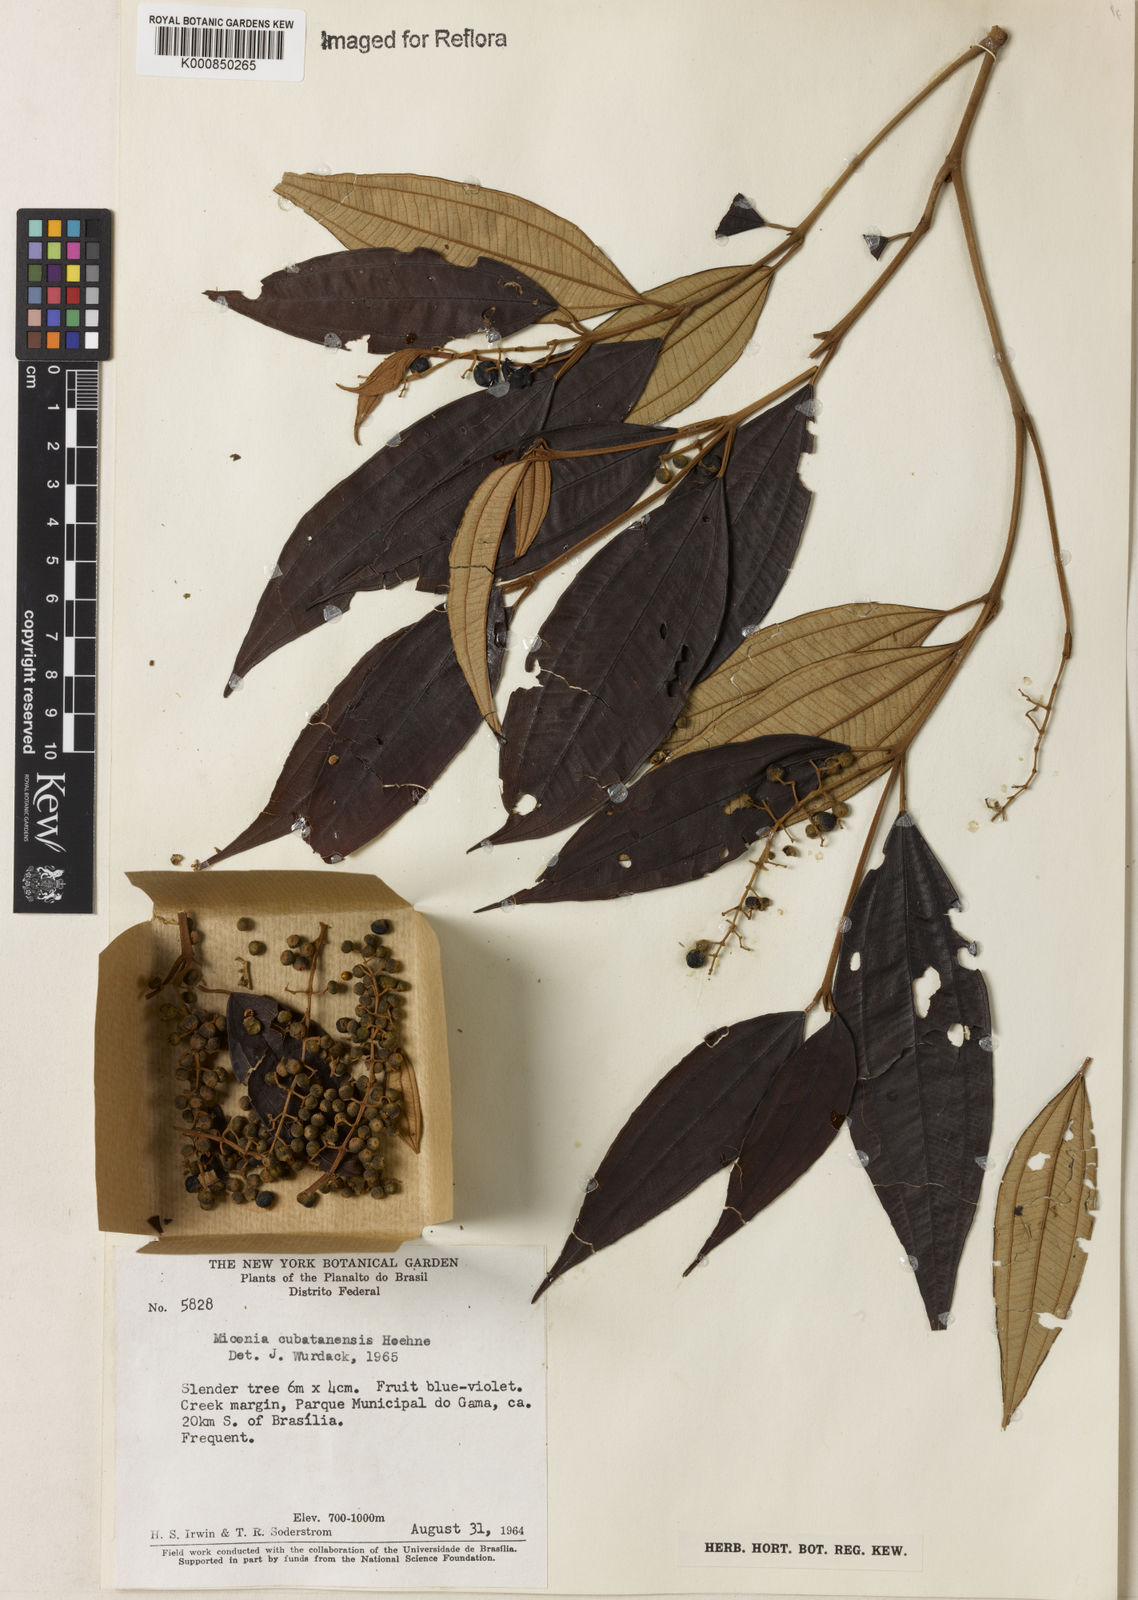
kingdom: Plantae
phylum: Tracheophyta
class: Magnoliopsida
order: Myrtales
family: Melastomataceae
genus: Miconia
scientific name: Miconia cubatanensis
